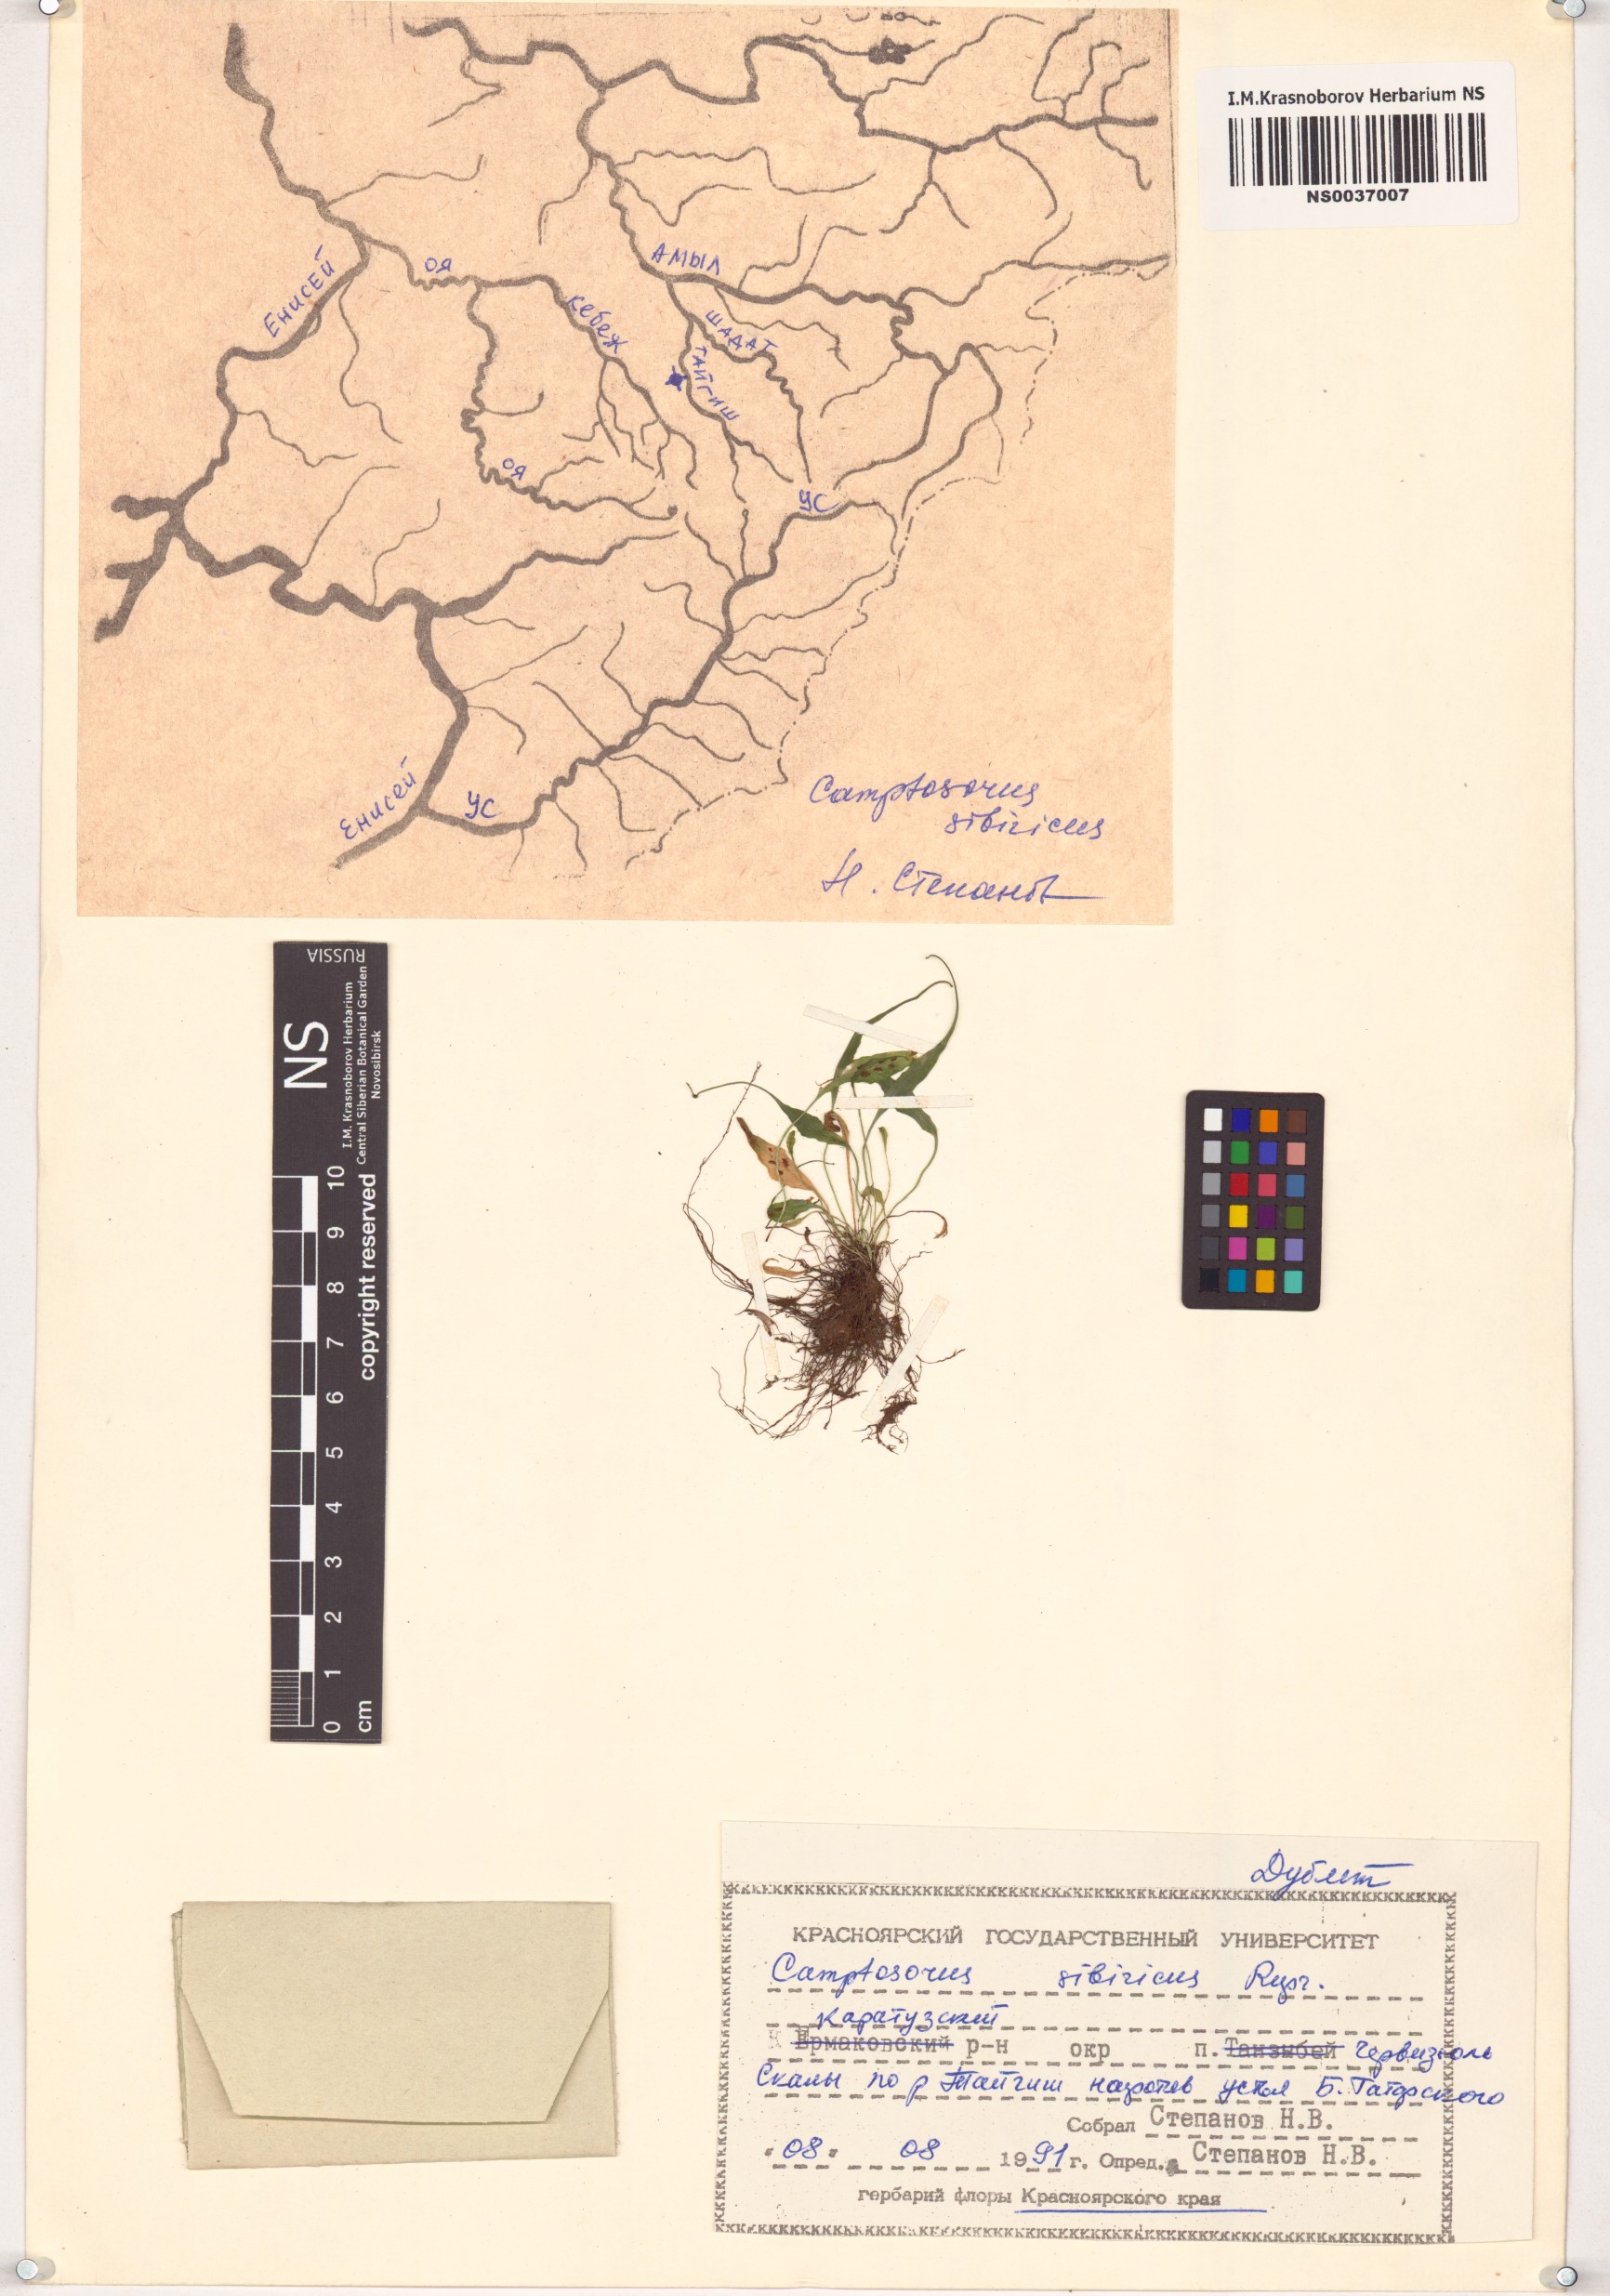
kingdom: Plantae
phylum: Tracheophyta
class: Polypodiopsida
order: Polypodiales
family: Aspleniaceae
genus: Asplenium
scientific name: Asplenium ruprechtii
